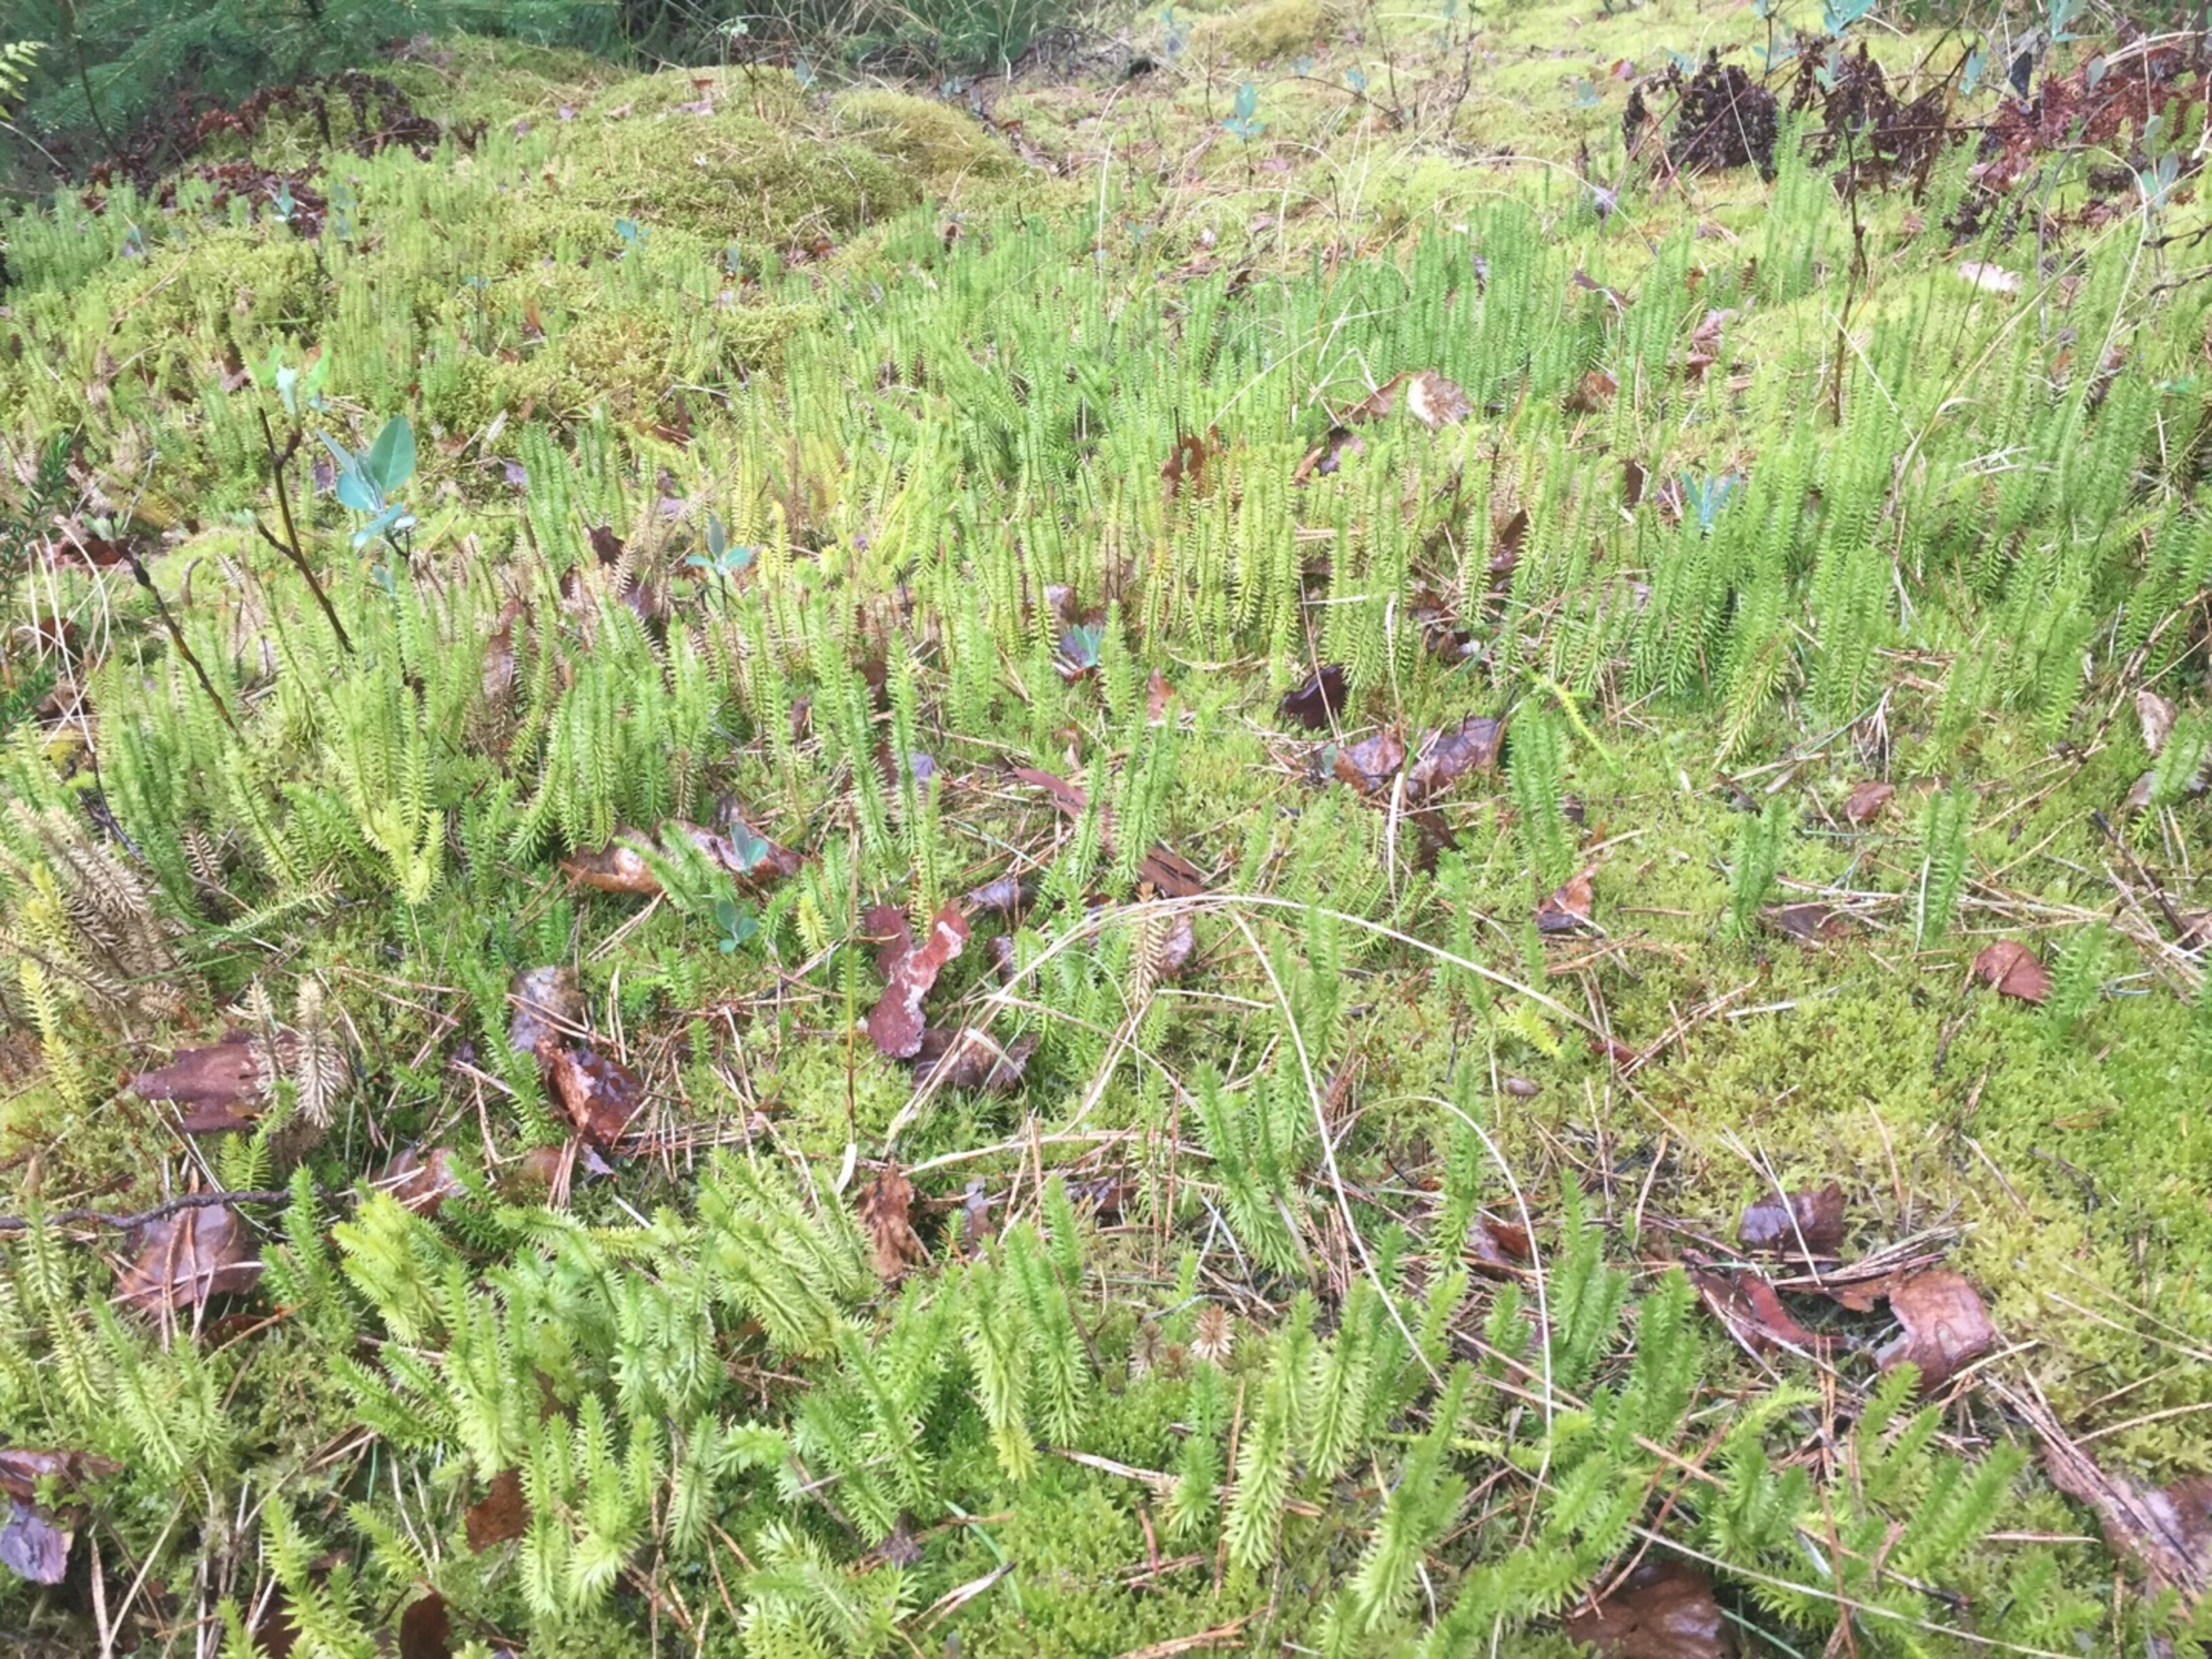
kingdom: Plantae
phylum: Tracheophyta
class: Lycopodiopsida
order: Lycopodiales
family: Lycopodiaceae
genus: Spinulum
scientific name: Spinulum annotinum
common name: Femradet ulvefod
